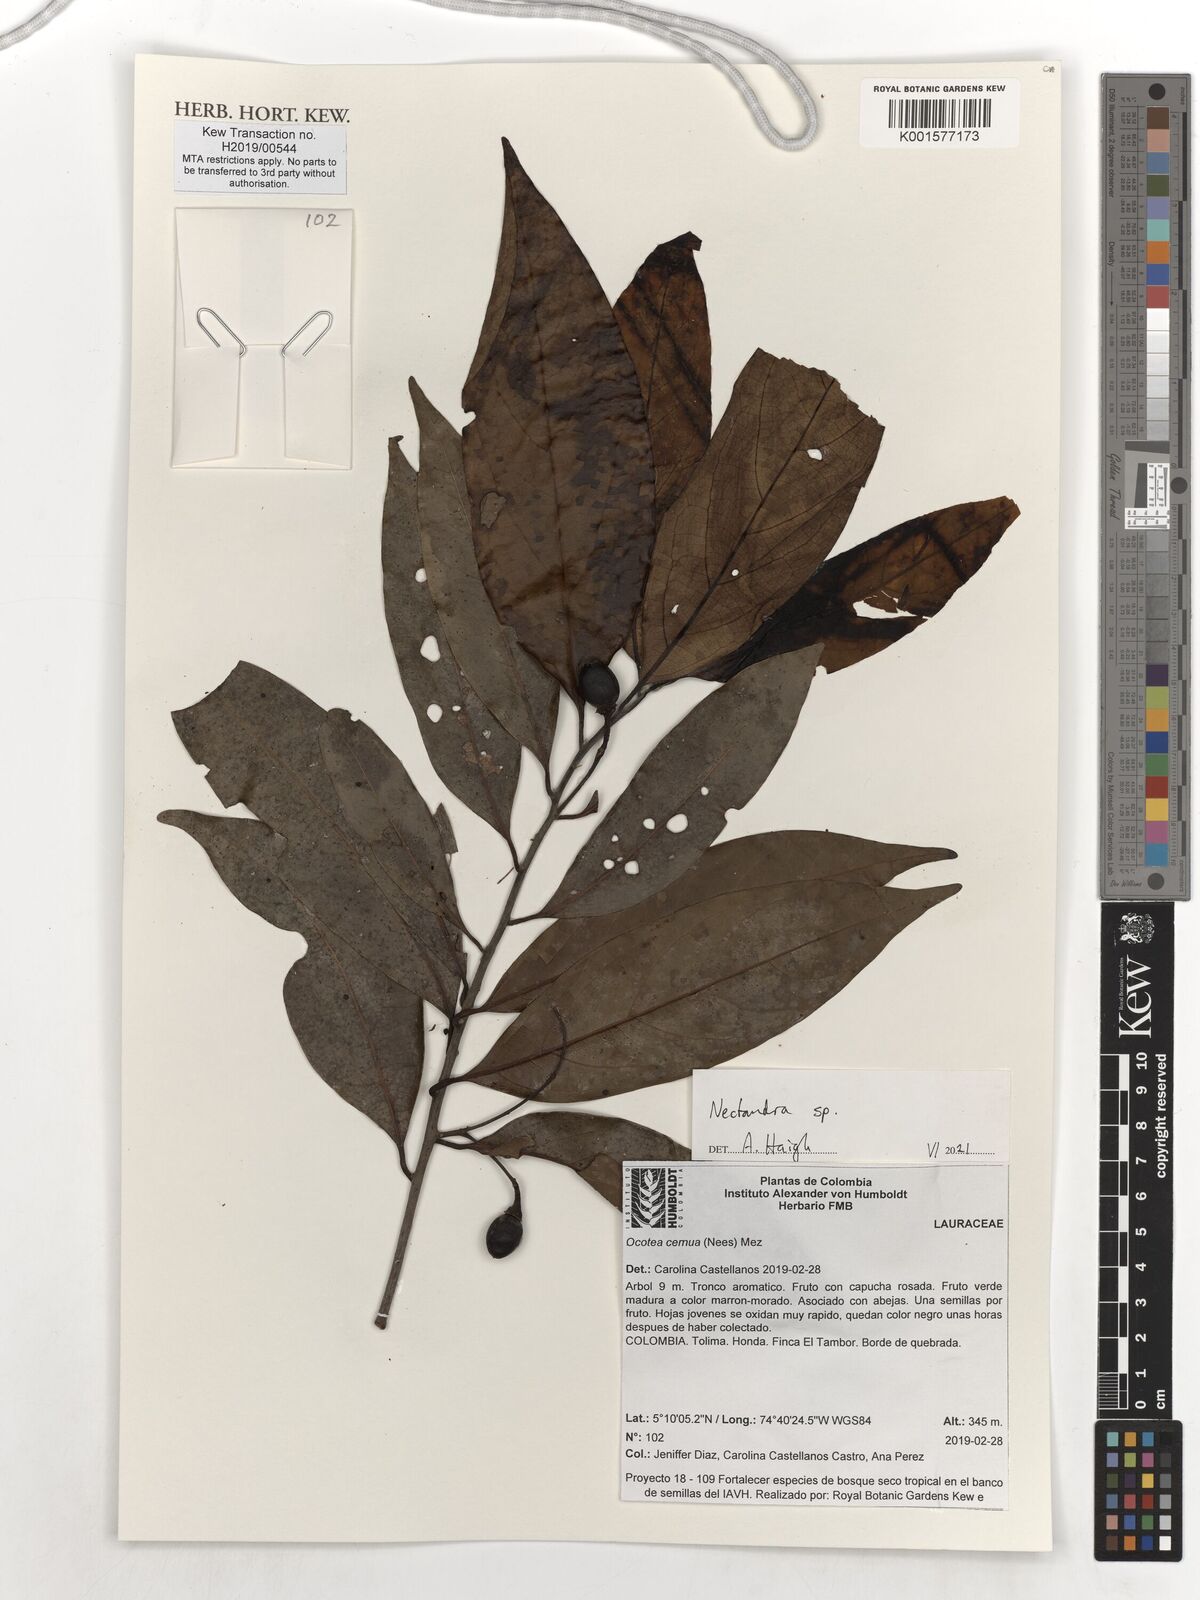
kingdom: Plantae
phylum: Tracheophyta
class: Magnoliopsida
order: Laurales
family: Lauraceae
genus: Nectandra
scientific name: Nectandra
